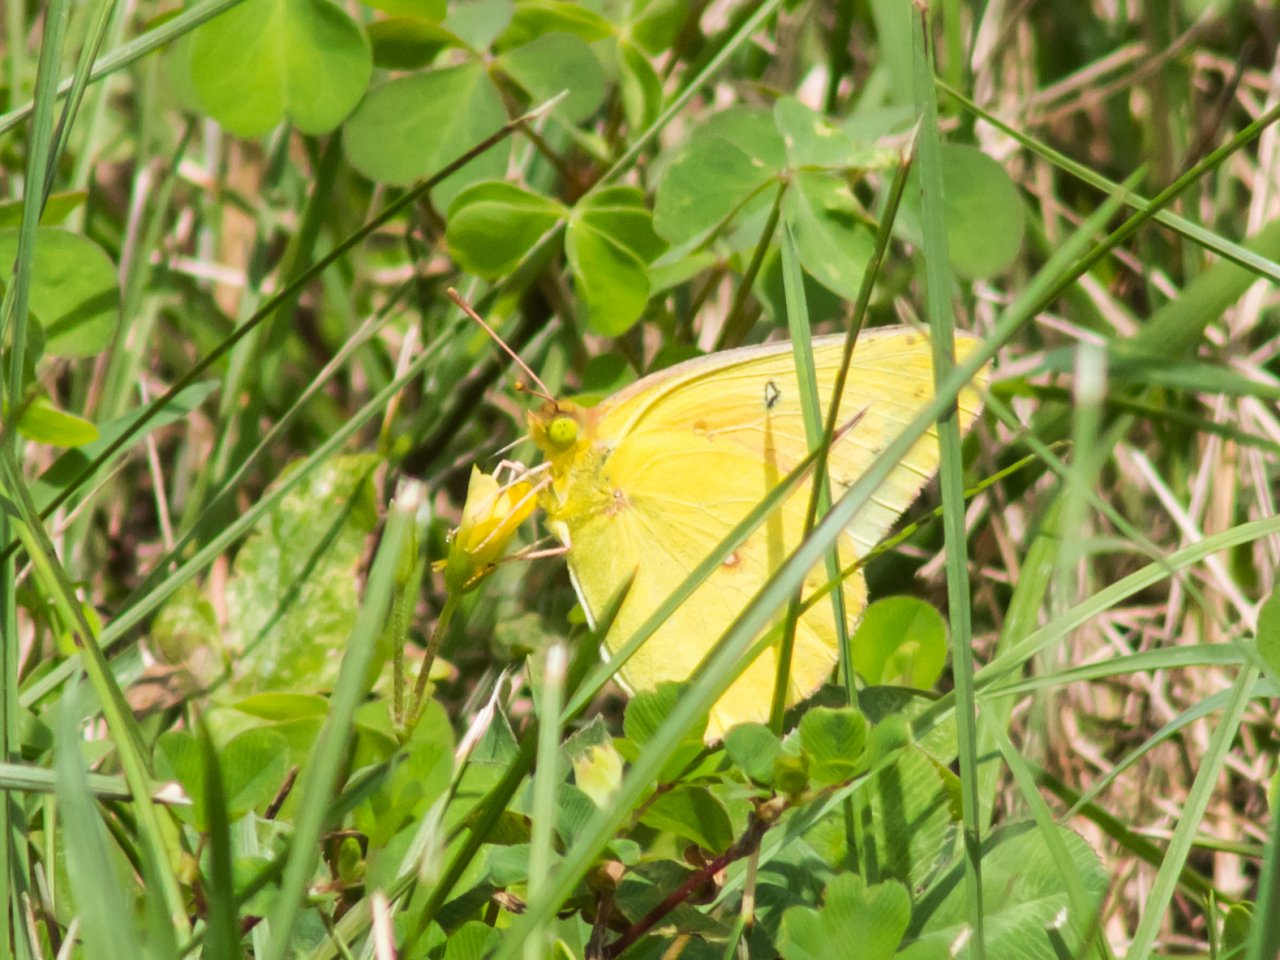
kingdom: Animalia
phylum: Arthropoda
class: Insecta
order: Lepidoptera
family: Pieridae
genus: Colias
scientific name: Colias eurytheme
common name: Orange Sulphur
